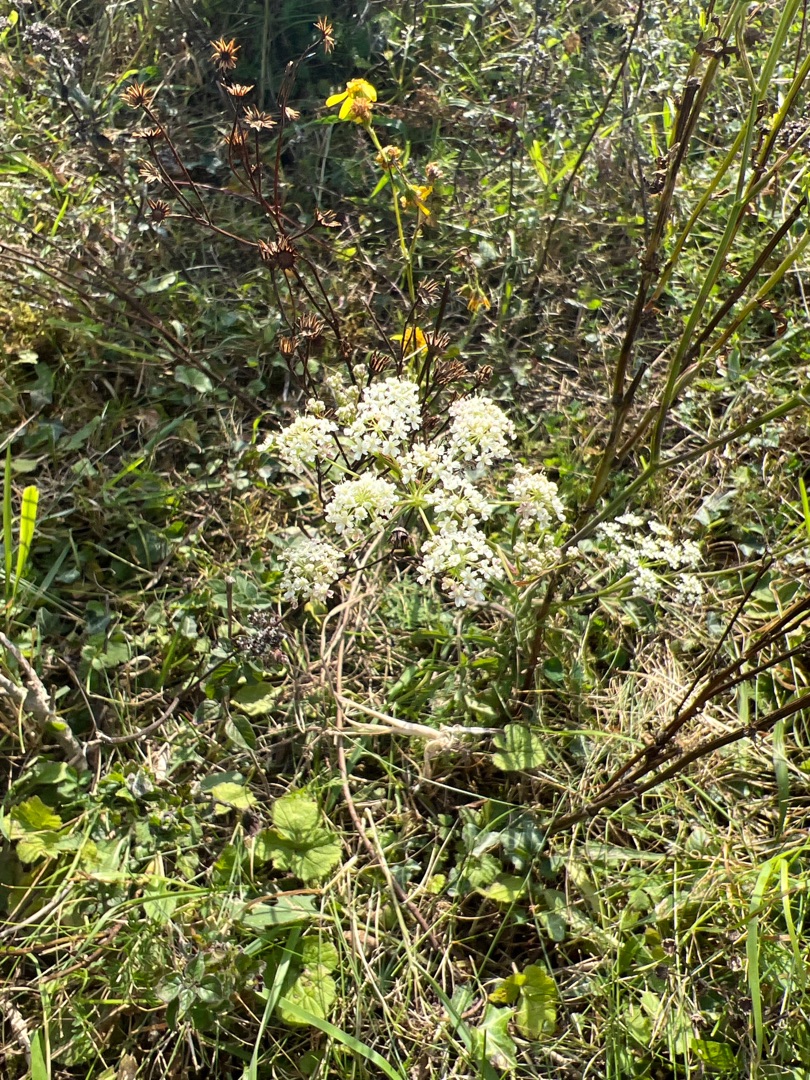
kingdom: Plantae
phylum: Tracheophyta
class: Magnoliopsida
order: Apiales
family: Apiaceae
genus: Pimpinella
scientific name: Pimpinella saxifraga
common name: Almindelig pimpinelle
